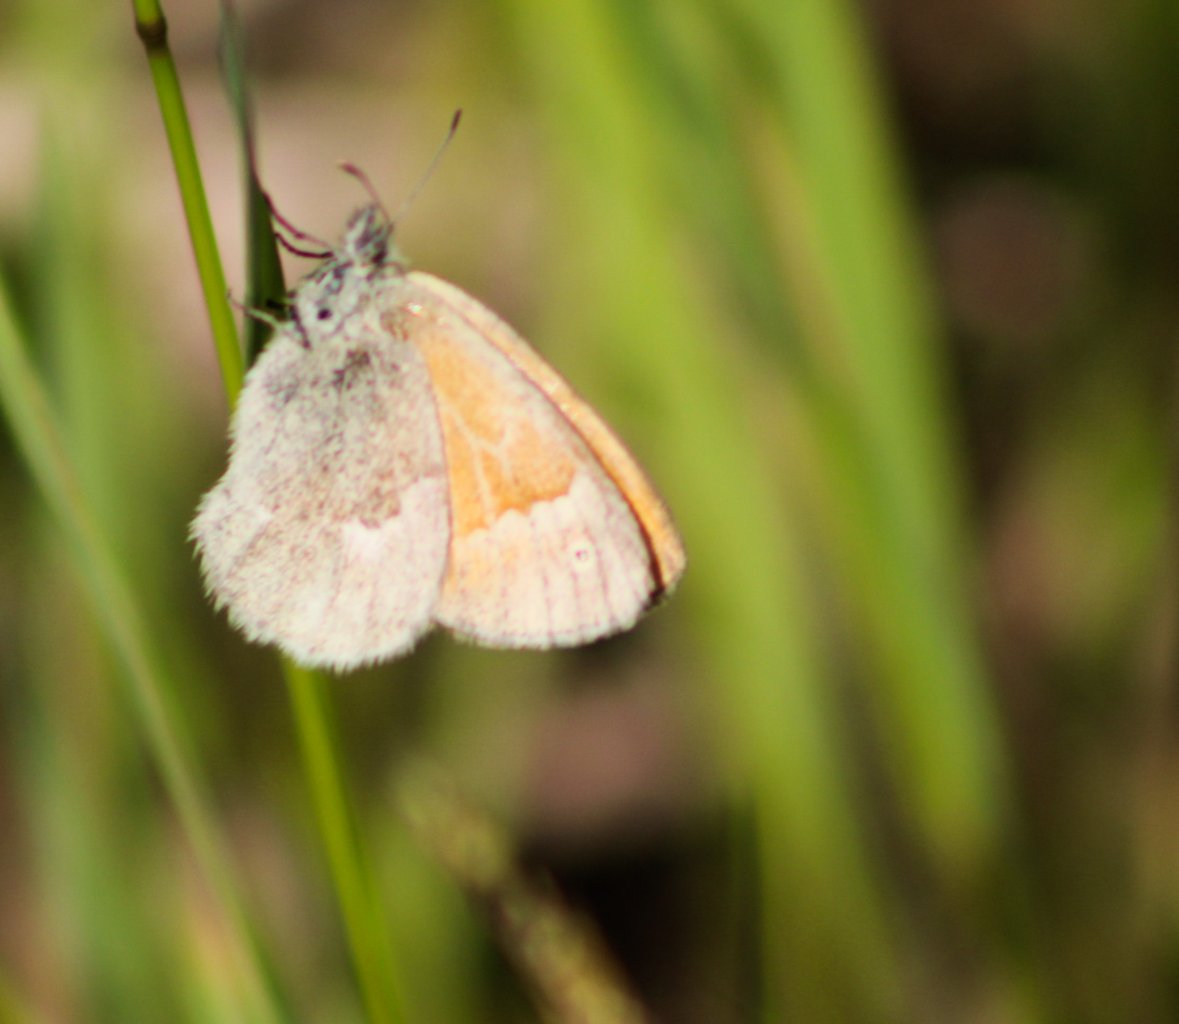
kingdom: Animalia
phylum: Arthropoda
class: Insecta
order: Lepidoptera
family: Nymphalidae
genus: Coenonympha
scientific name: Coenonympha tullia
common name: Large Heath
